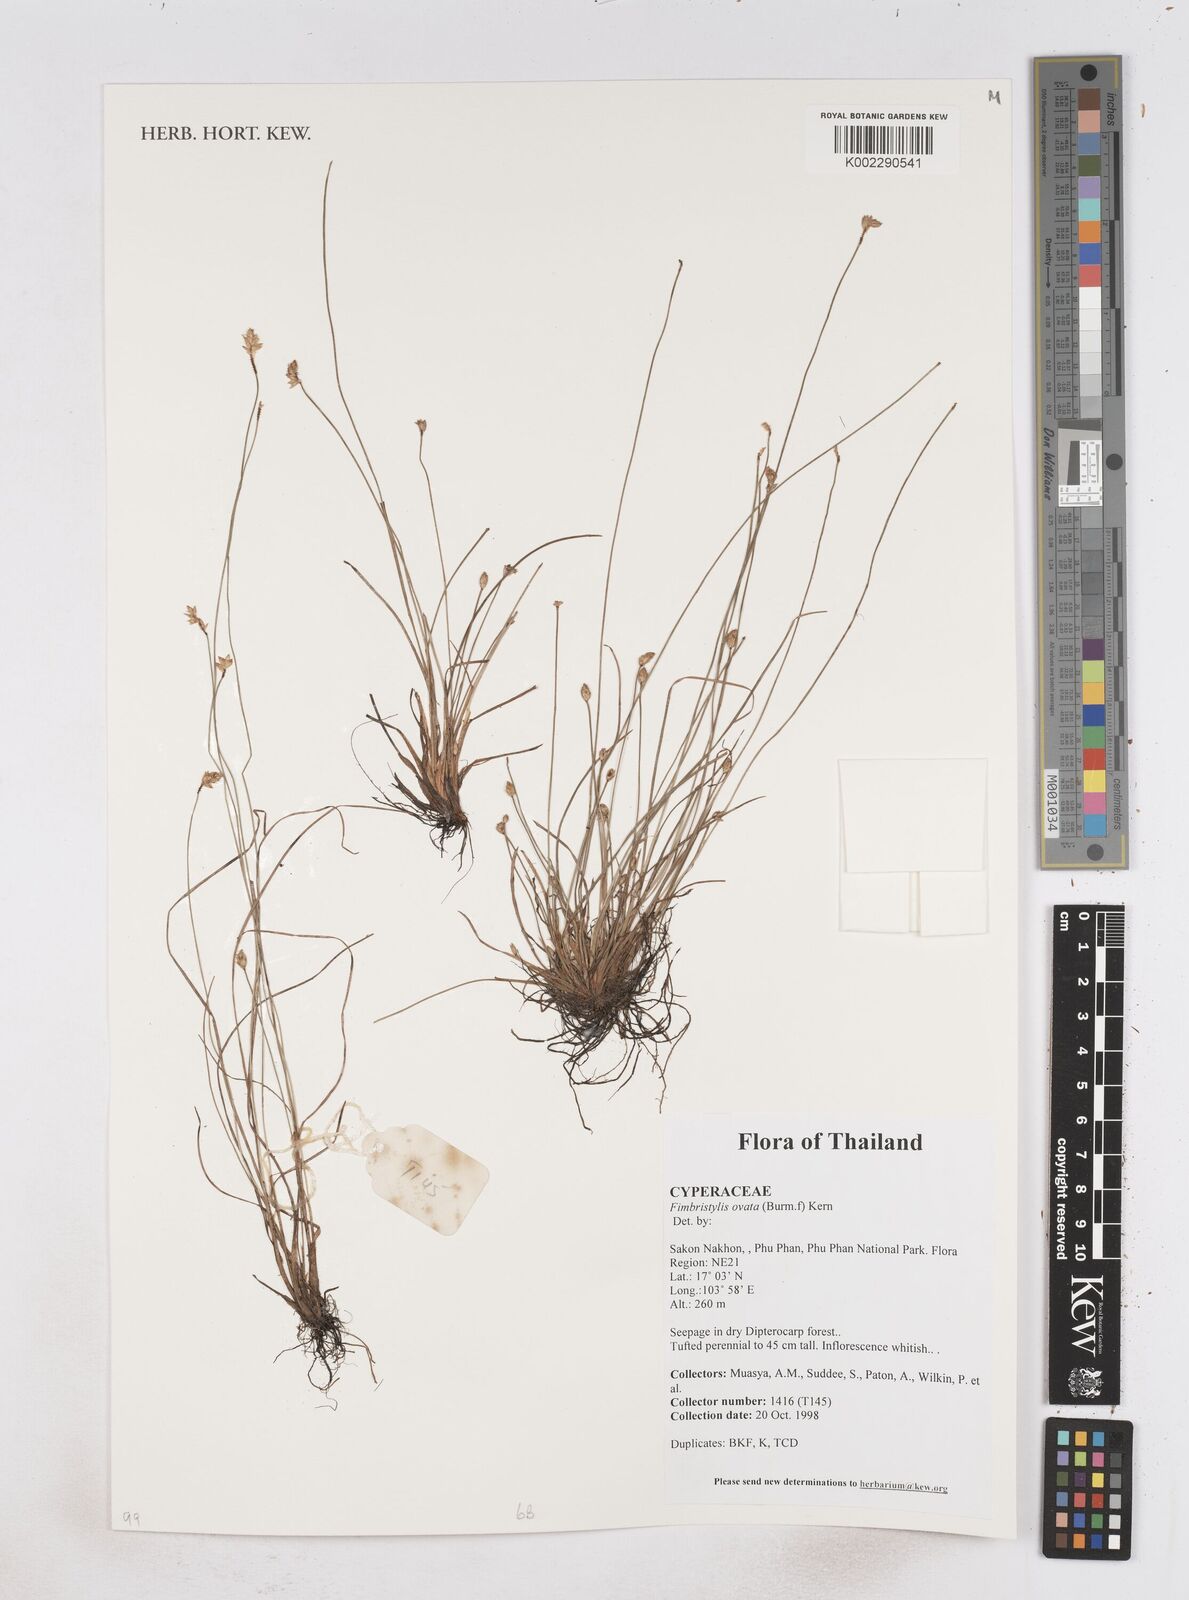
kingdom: Plantae
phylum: Tracheophyta
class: Liliopsida
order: Poales
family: Cyperaceae
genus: Abildgaardia
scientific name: Abildgaardia ovata
